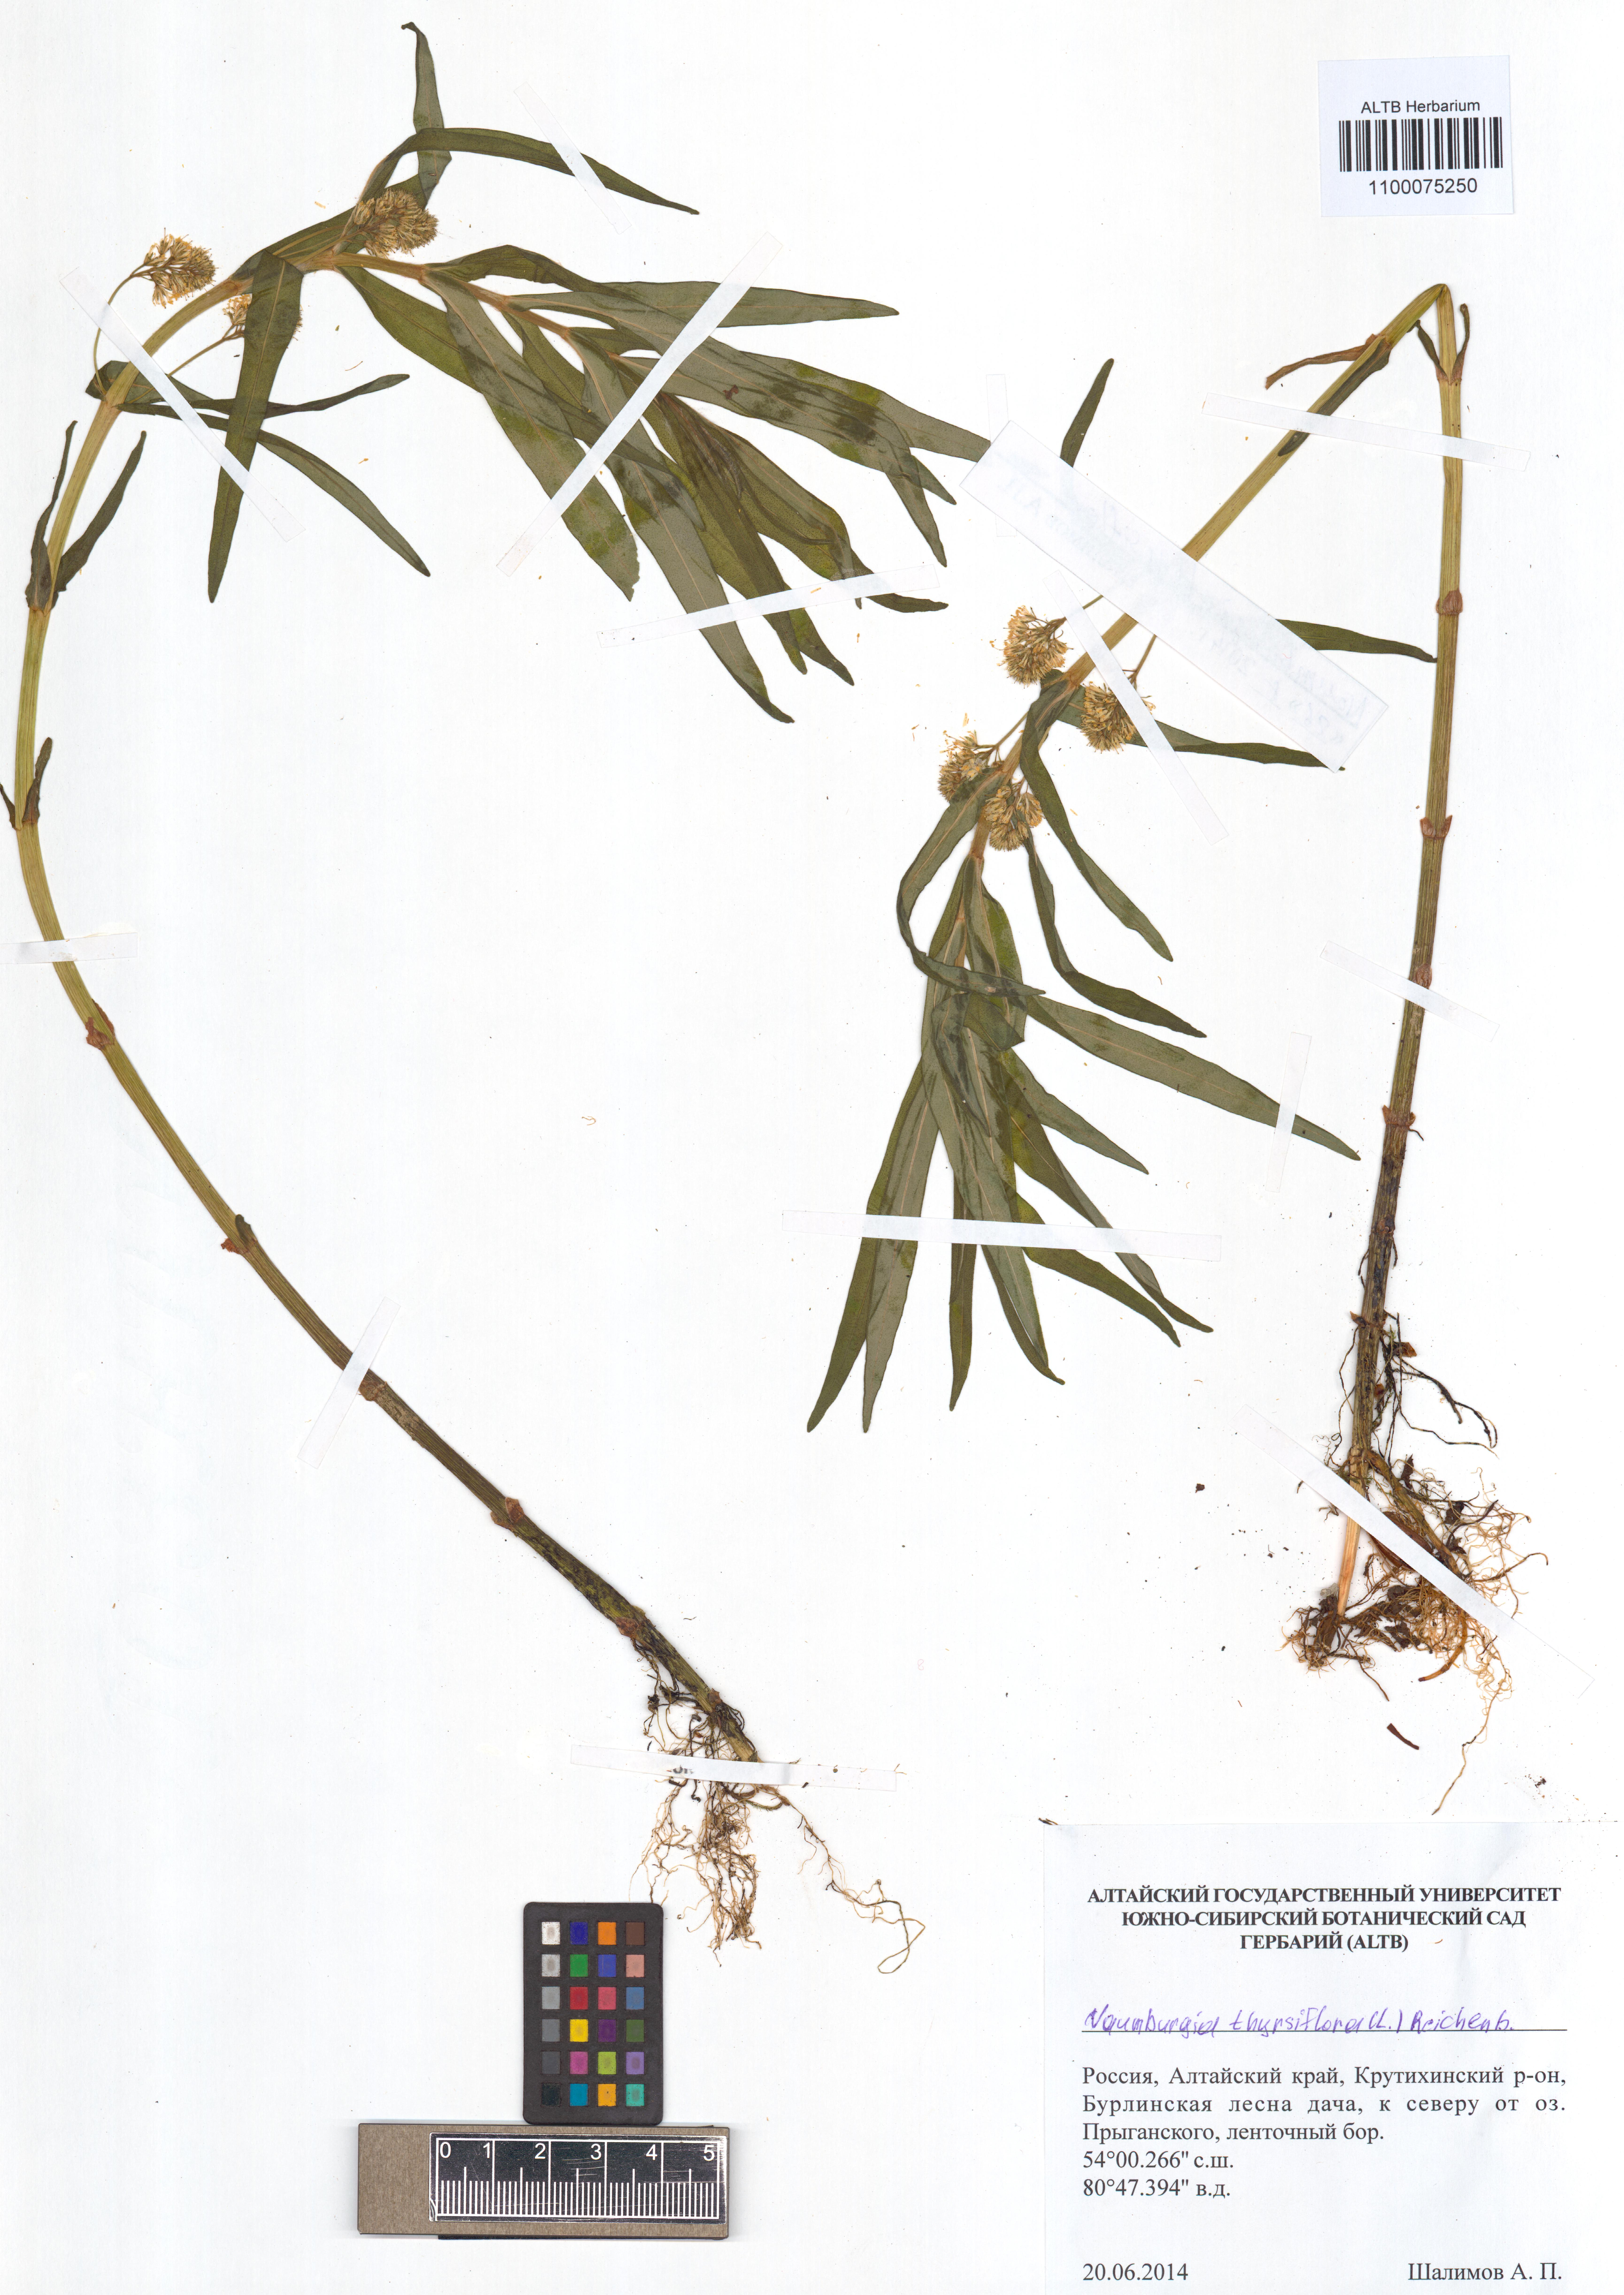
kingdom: Plantae
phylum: Tracheophyta
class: Magnoliopsida
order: Ericales
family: Primulaceae
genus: Lysimachia
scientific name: Lysimachia thyrsiflora
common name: Tufted loosestrife
